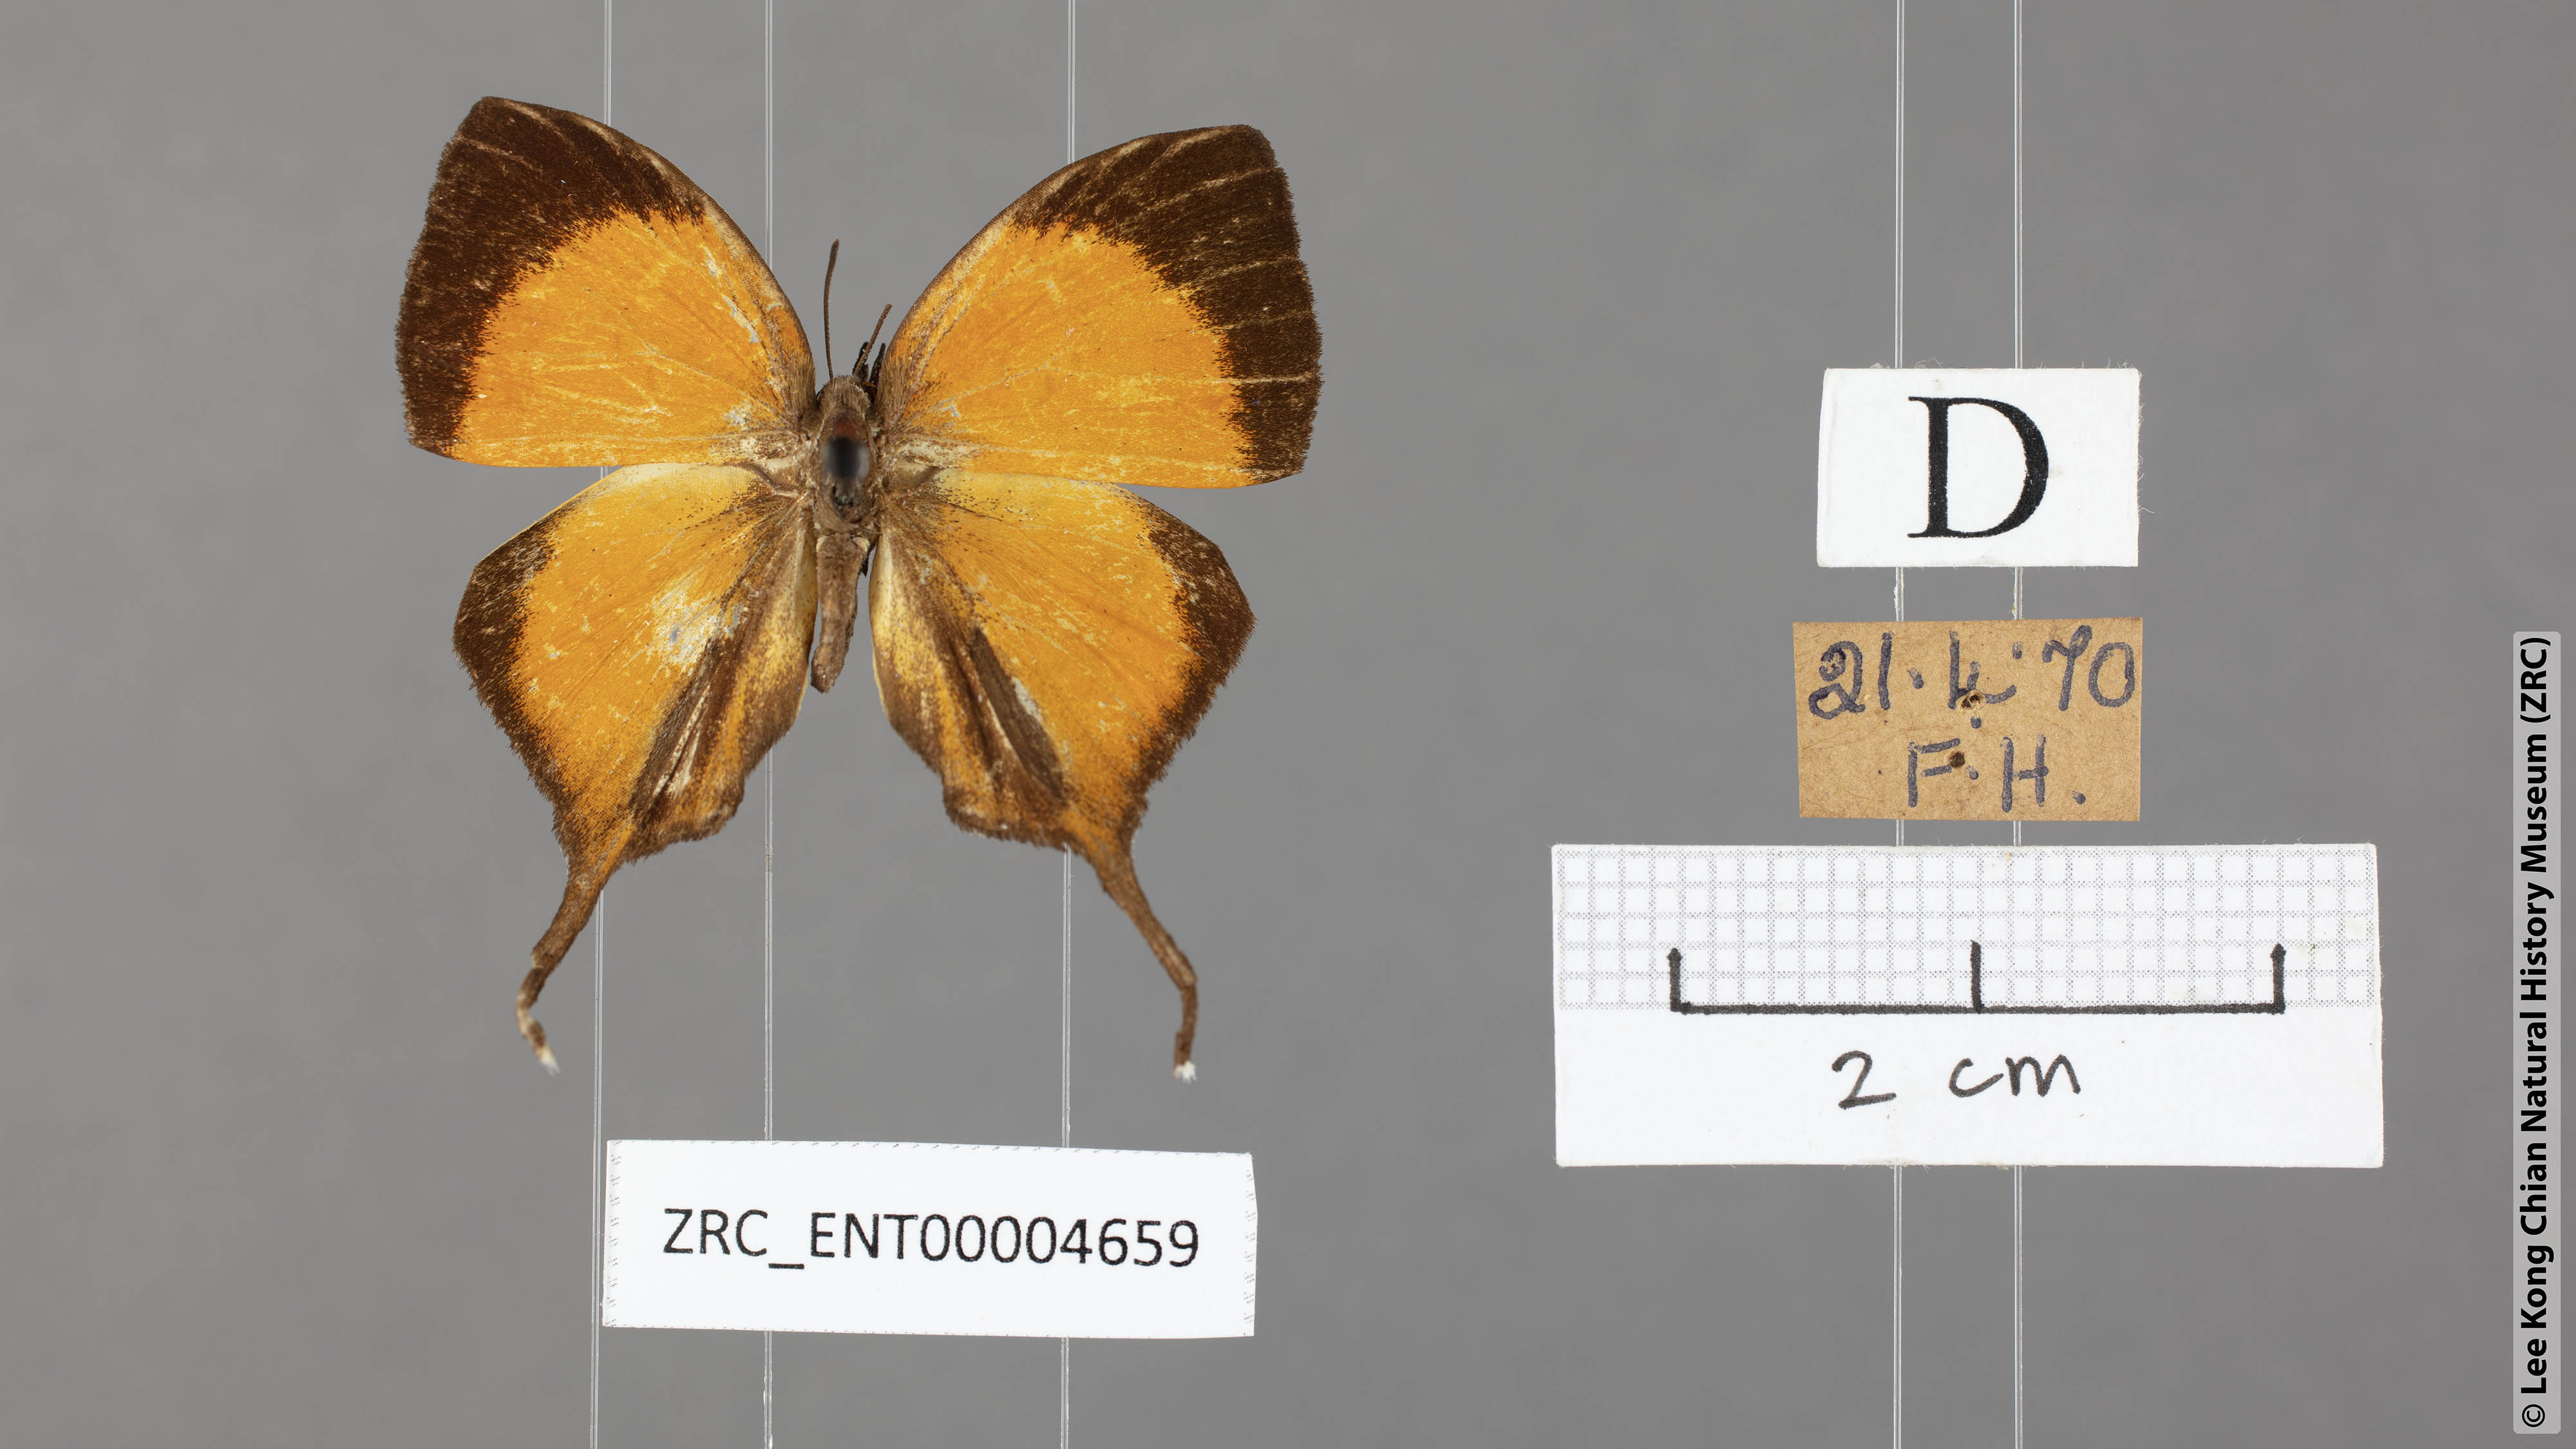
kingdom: Animalia
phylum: Arthropoda
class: Insecta
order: Lepidoptera
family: Lycaenidae
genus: Yasoda
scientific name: Yasoda pita
